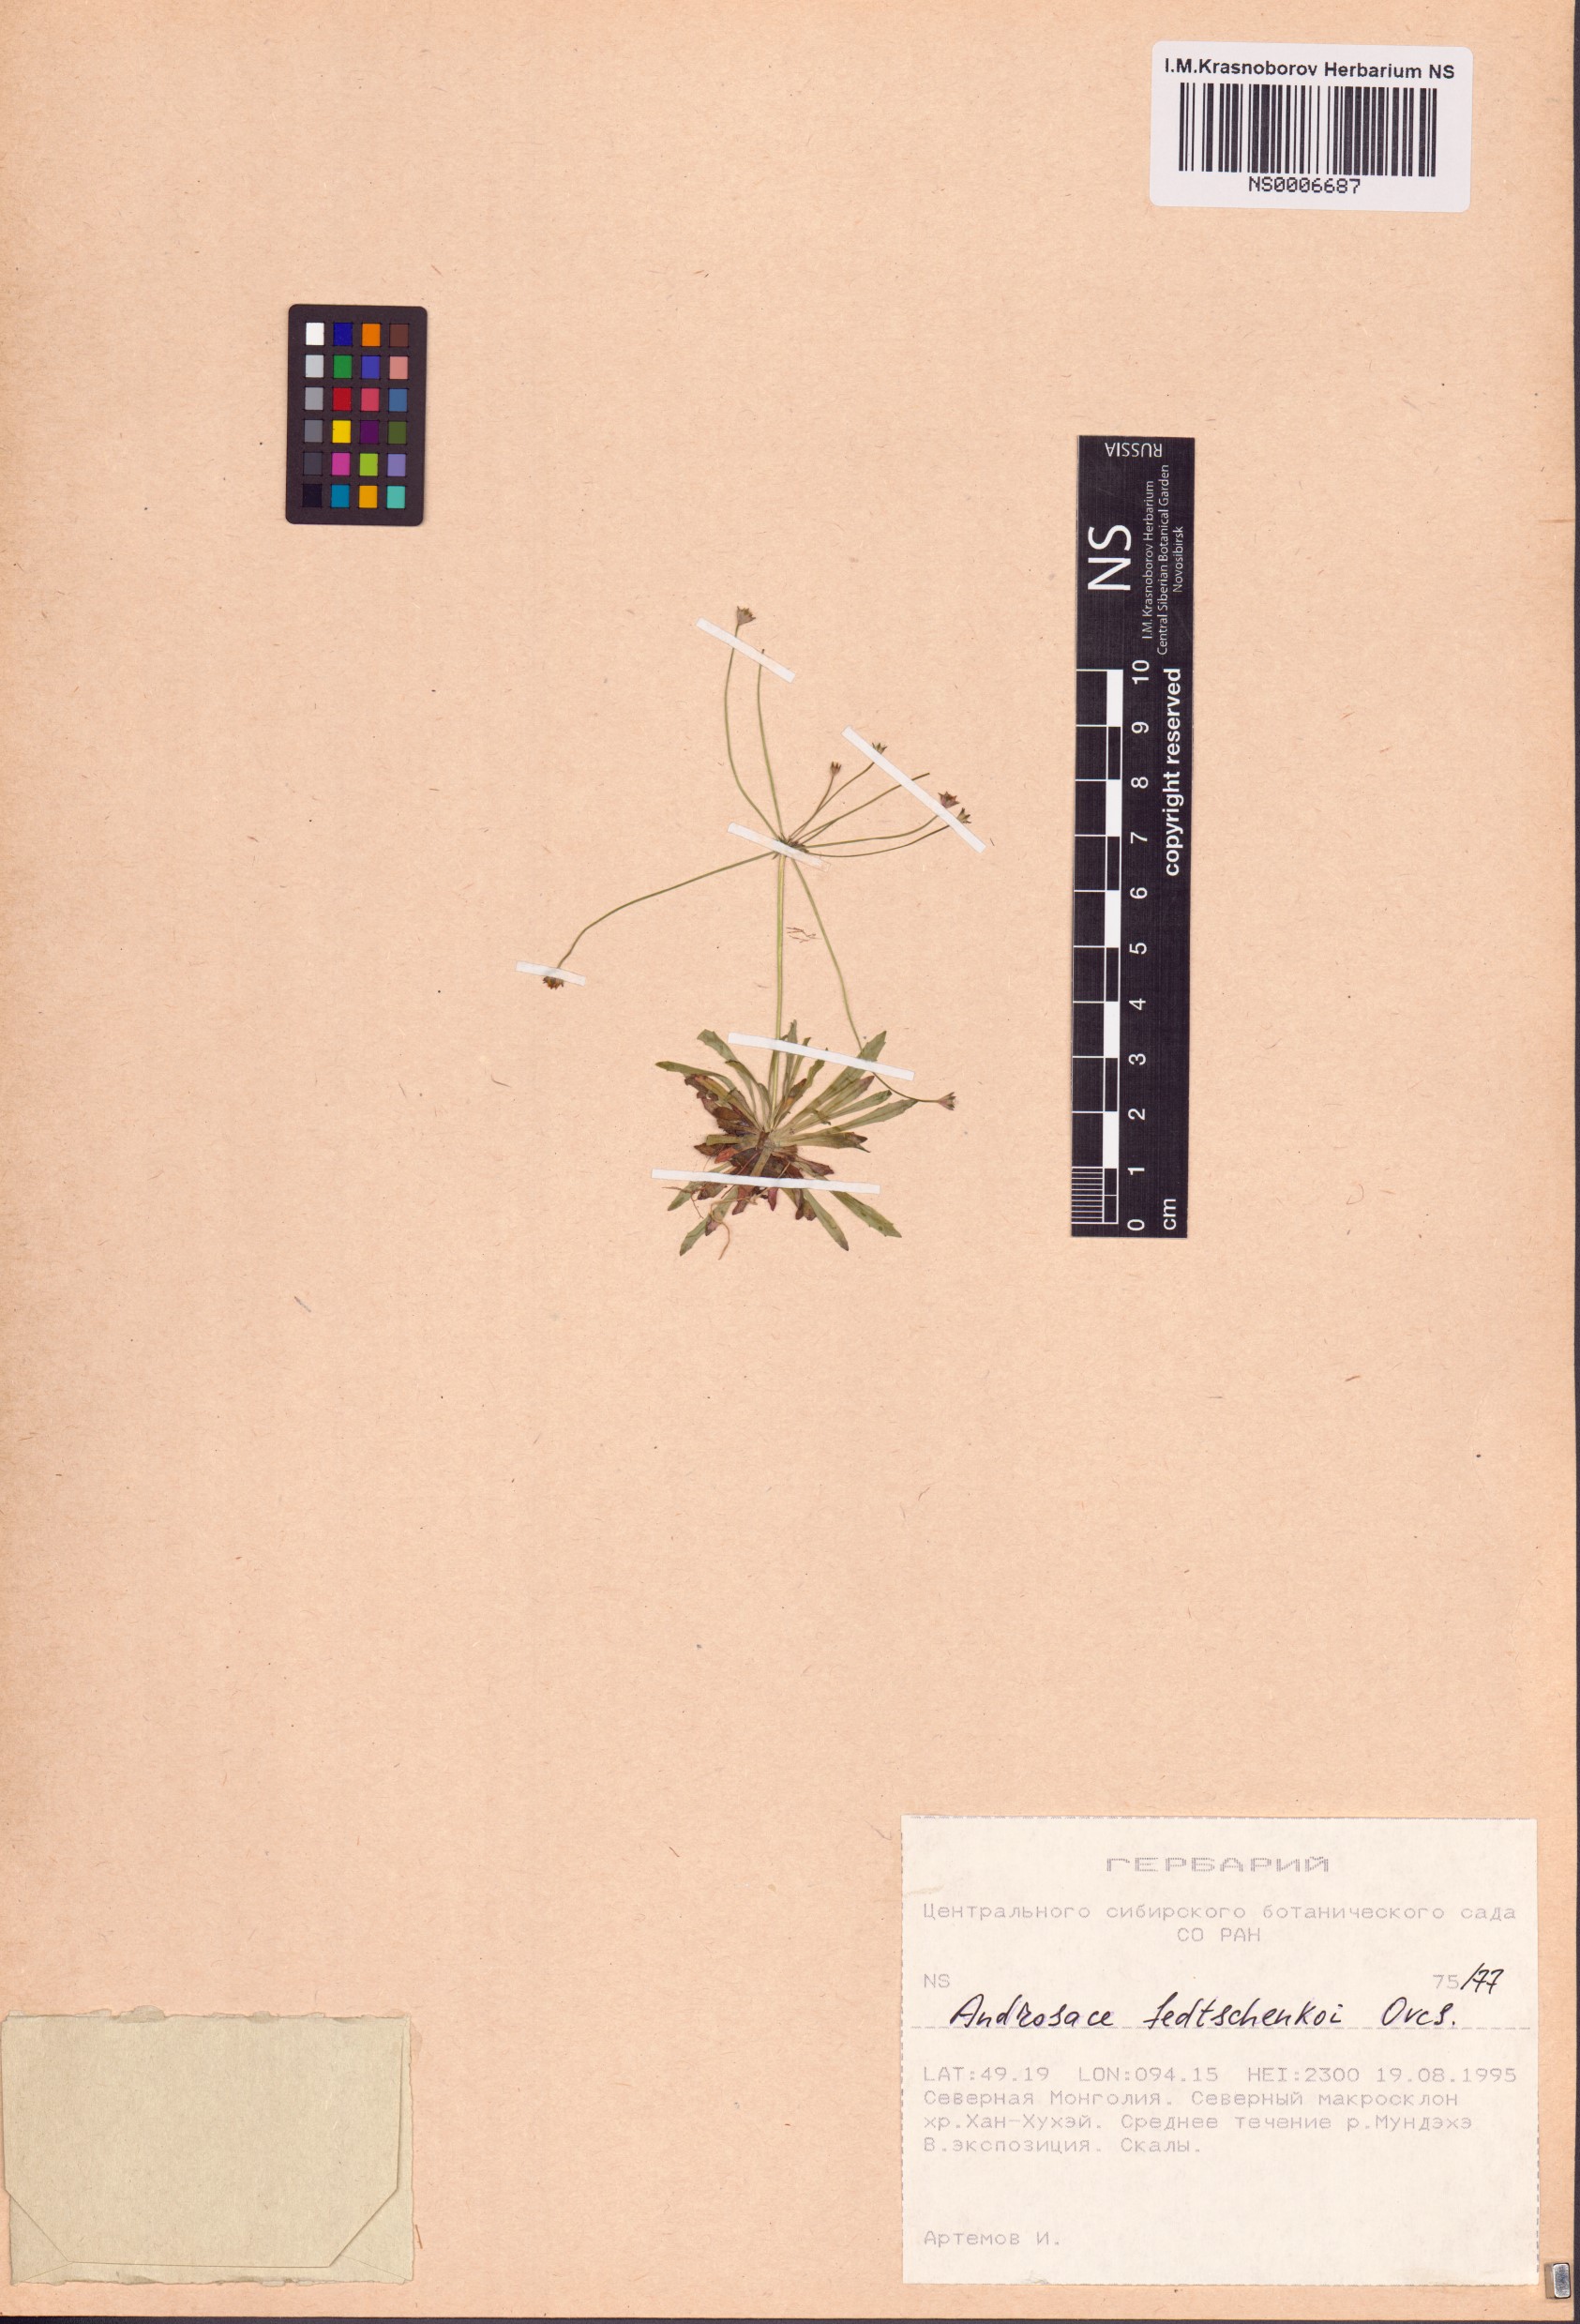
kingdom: Plantae
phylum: Tracheophyta
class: Magnoliopsida
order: Ericales
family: Primulaceae
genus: Androsace
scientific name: Androsace fedtschenkoi
